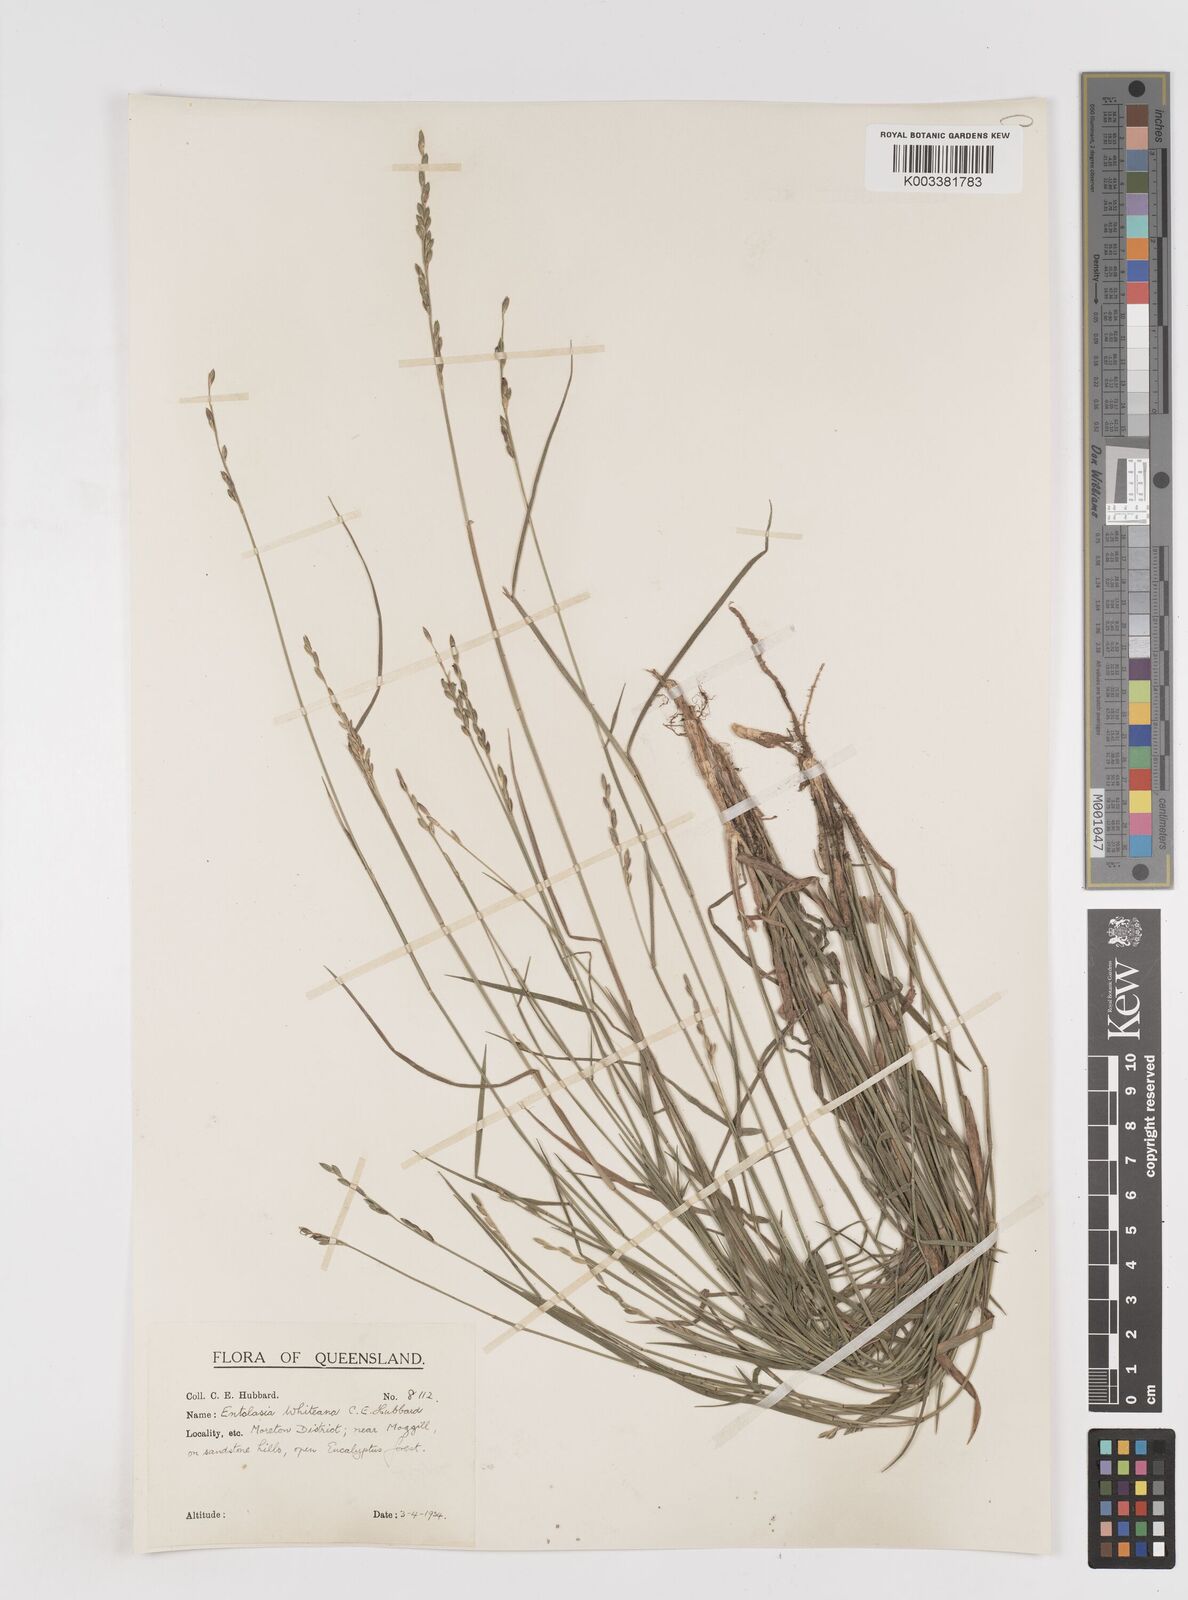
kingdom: Plantae
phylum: Tracheophyta
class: Liliopsida
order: Poales
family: Poaceae
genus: Entolasia
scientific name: Entolasia whiteana
